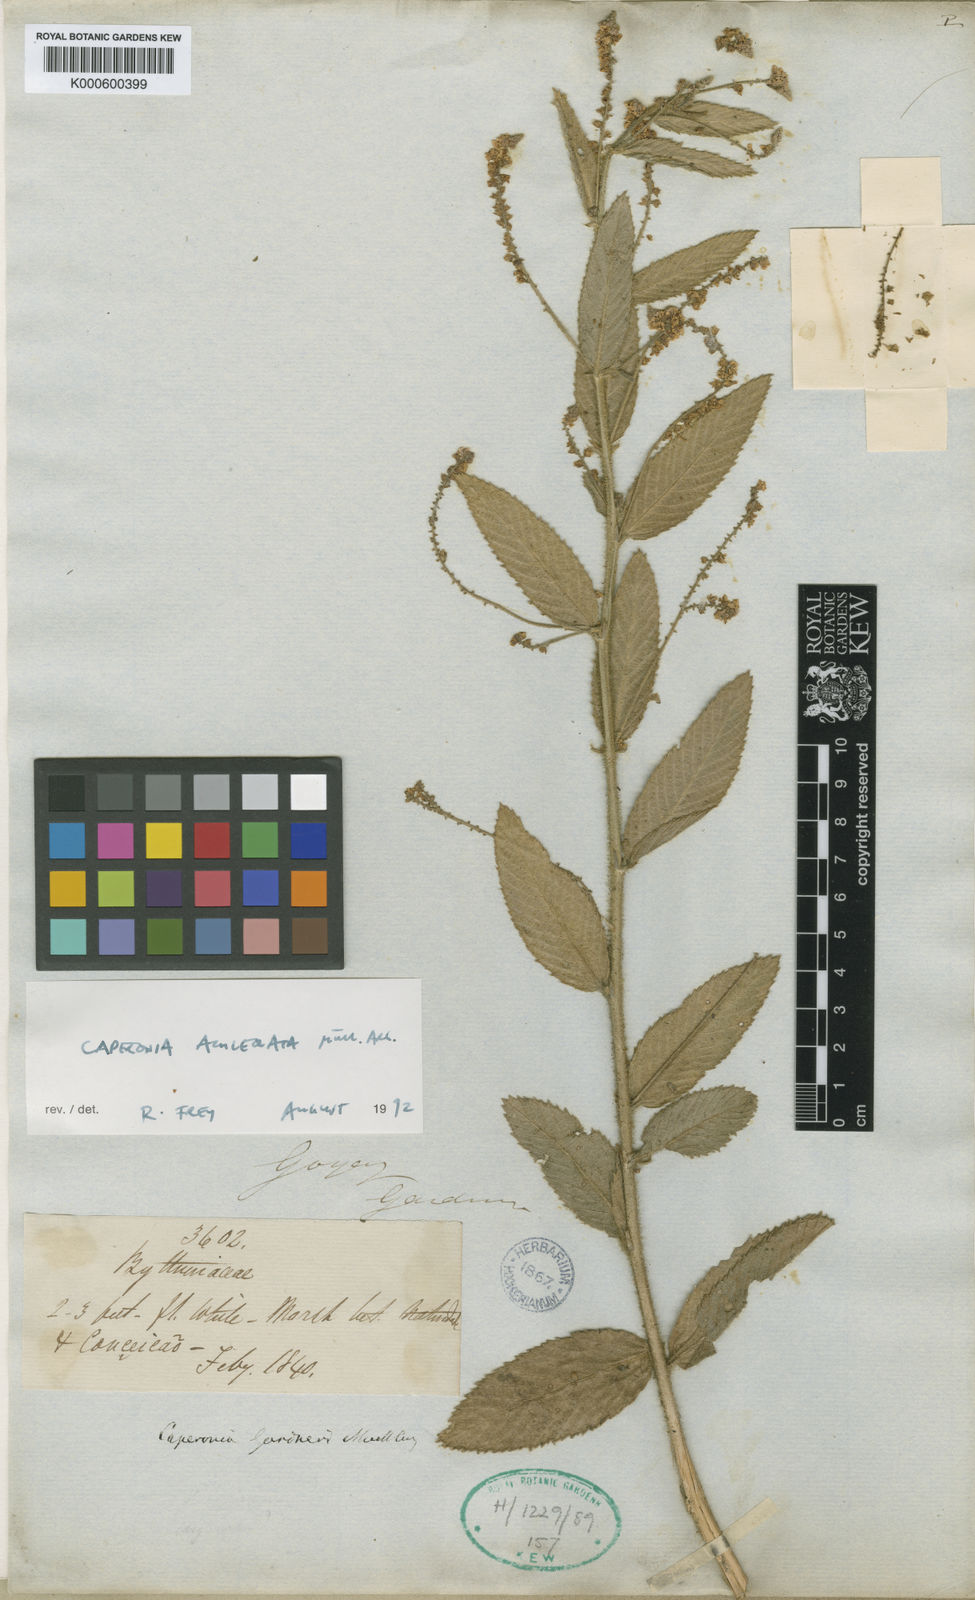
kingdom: Plantae
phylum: Tracheophyta
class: Magnoliopsida
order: Malpighiales
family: Euphorbiaceae
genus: Caperonia
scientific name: Caperonia
